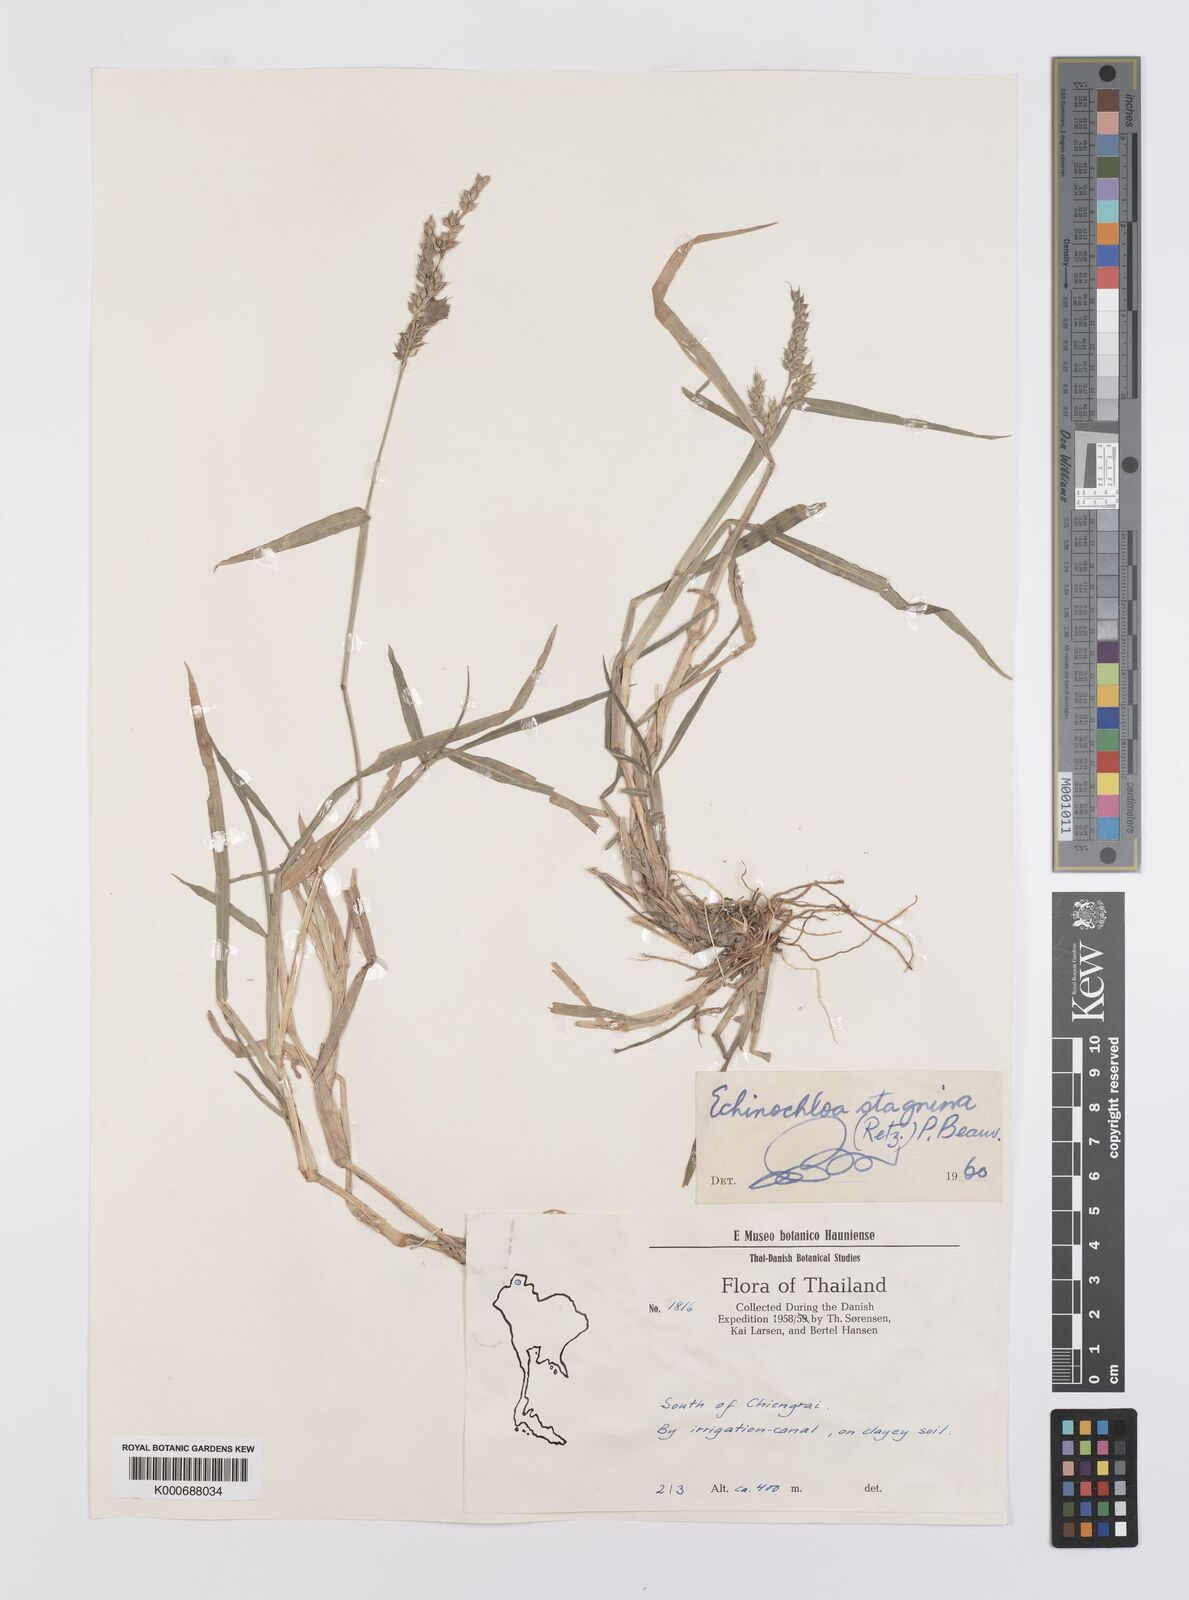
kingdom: Plantae
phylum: Tracheophyta
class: Liliopsida
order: Poales
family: Poaceae
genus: Echinochloa
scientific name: Echinochloa picta
